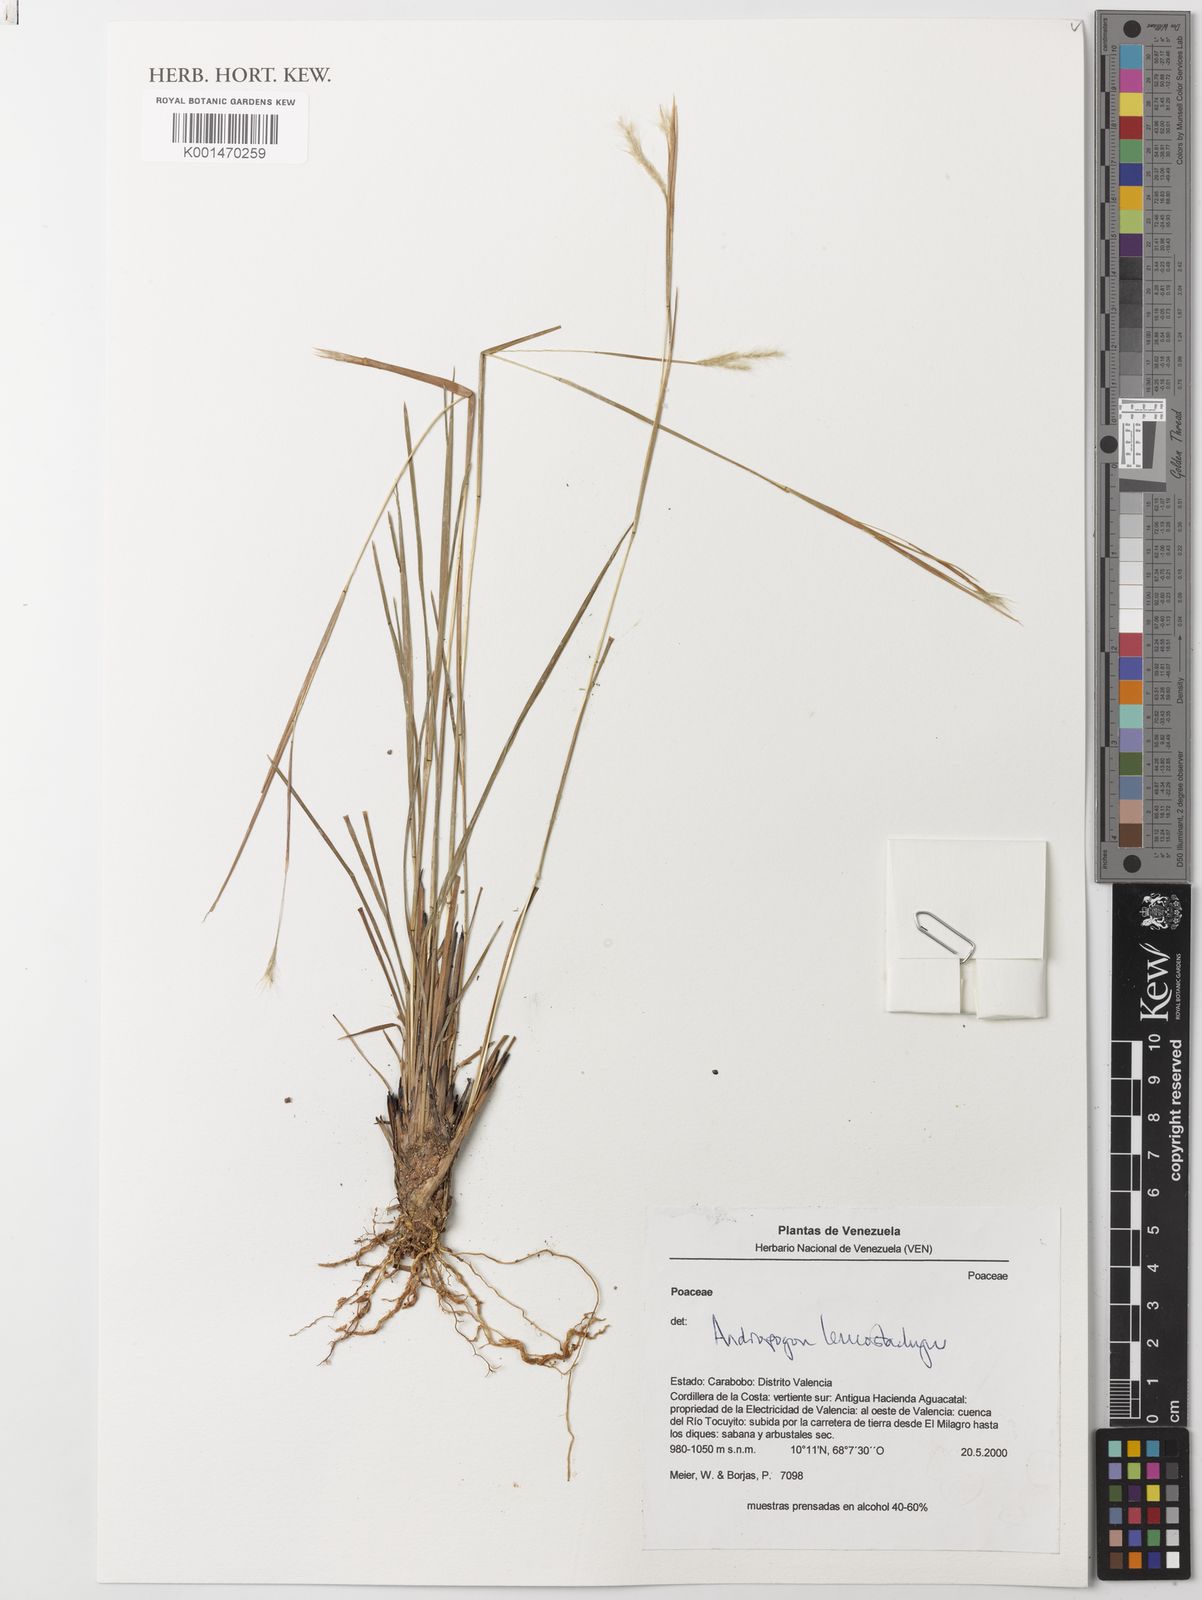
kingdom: Plantae
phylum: Tracheophyta
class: Liliopsida
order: Poales
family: Poaceae
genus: Andropogon
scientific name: Andropogon leucostachyus
